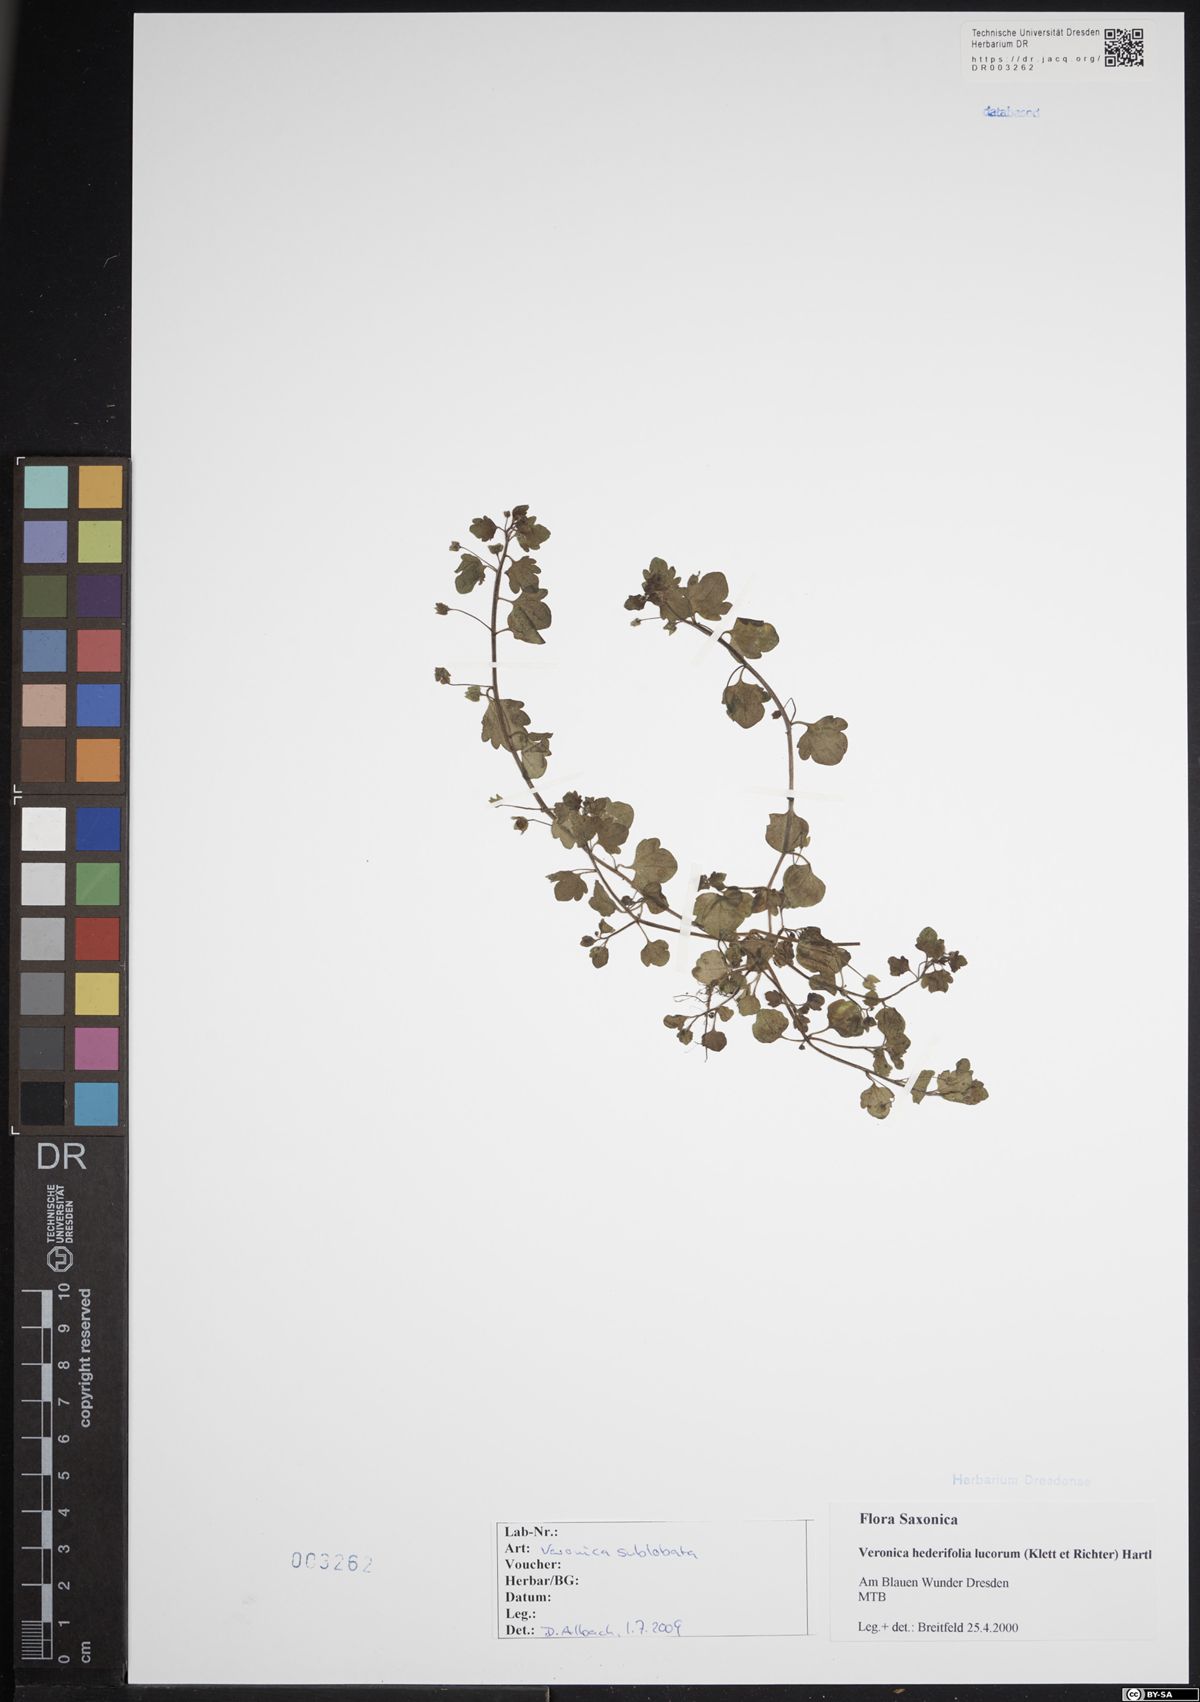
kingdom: Plantae
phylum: Tracheophyta
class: Magnoliopsida
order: Lamiales
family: Plantaginaceae
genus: Veronica
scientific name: Veronica sublobata
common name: False ivy-leaved speedwell
